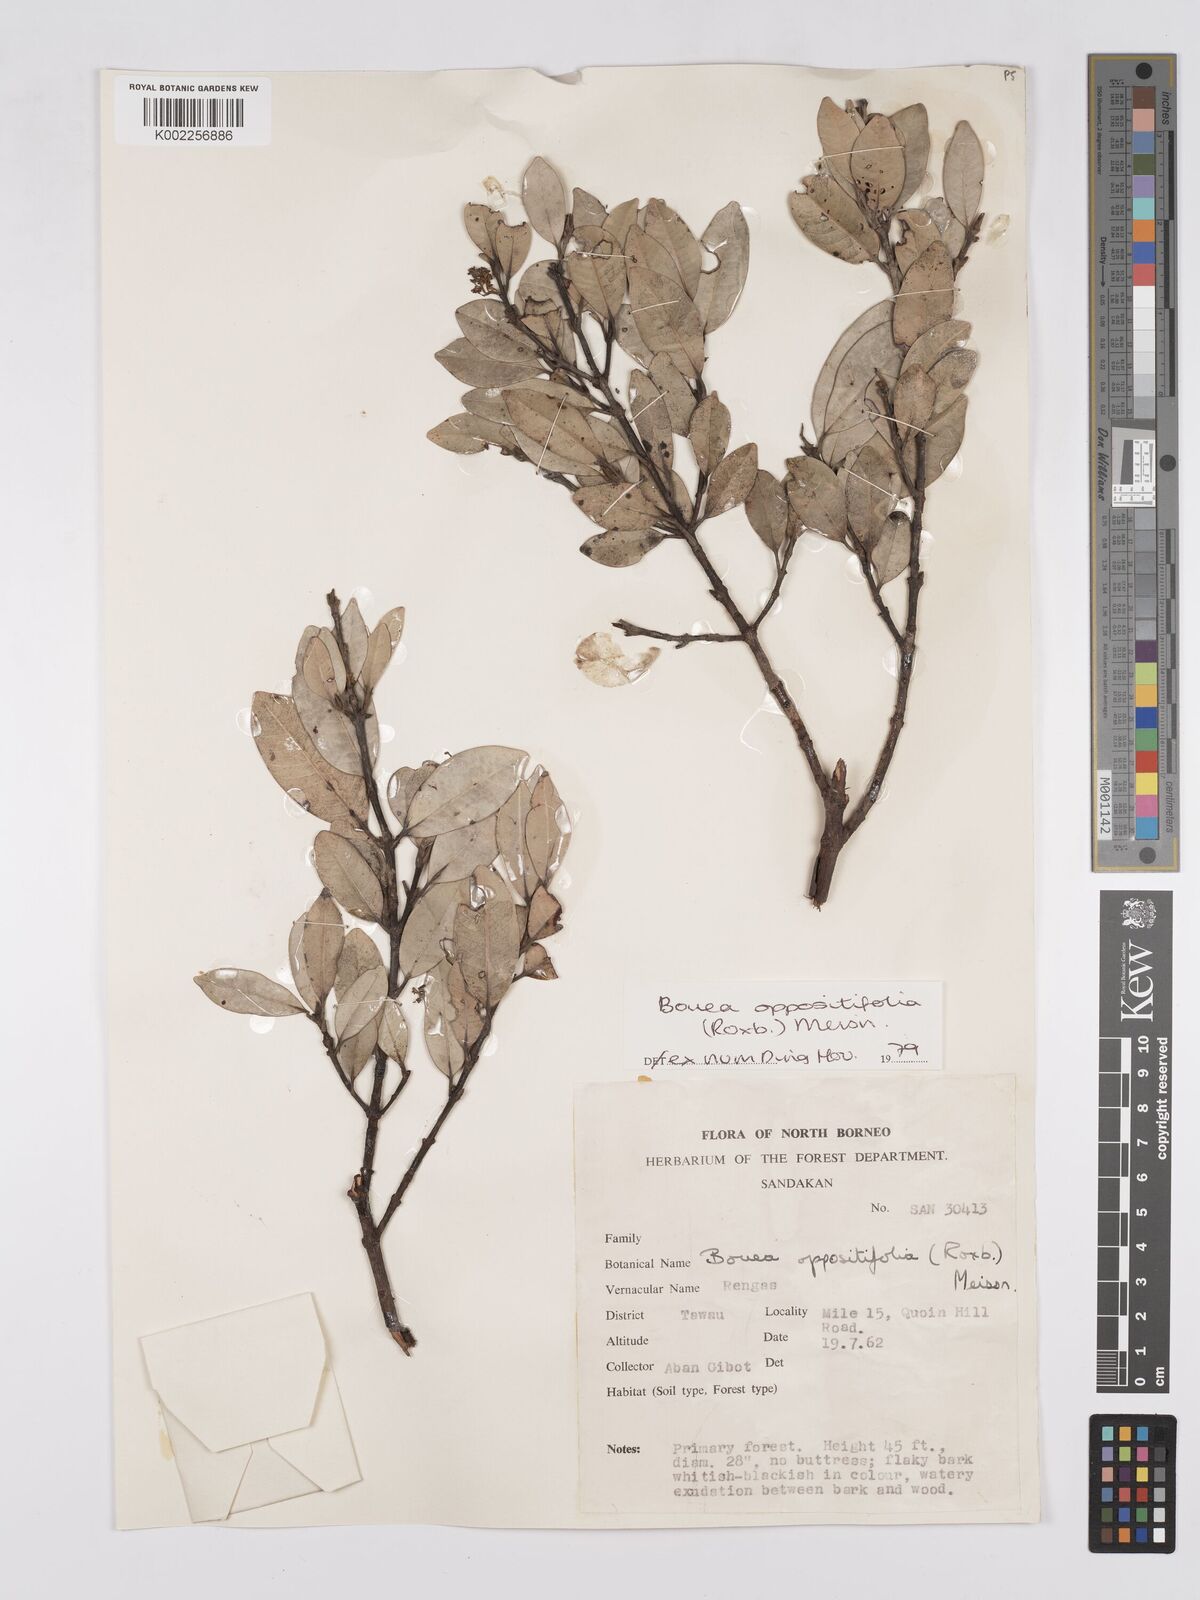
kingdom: Plantae
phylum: Tracheophyta
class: Magnoliopsida
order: Sapindales
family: Anacardiaceae
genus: Bouea
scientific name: Bouea oppositifolia
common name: Narrow-leaved kundang
